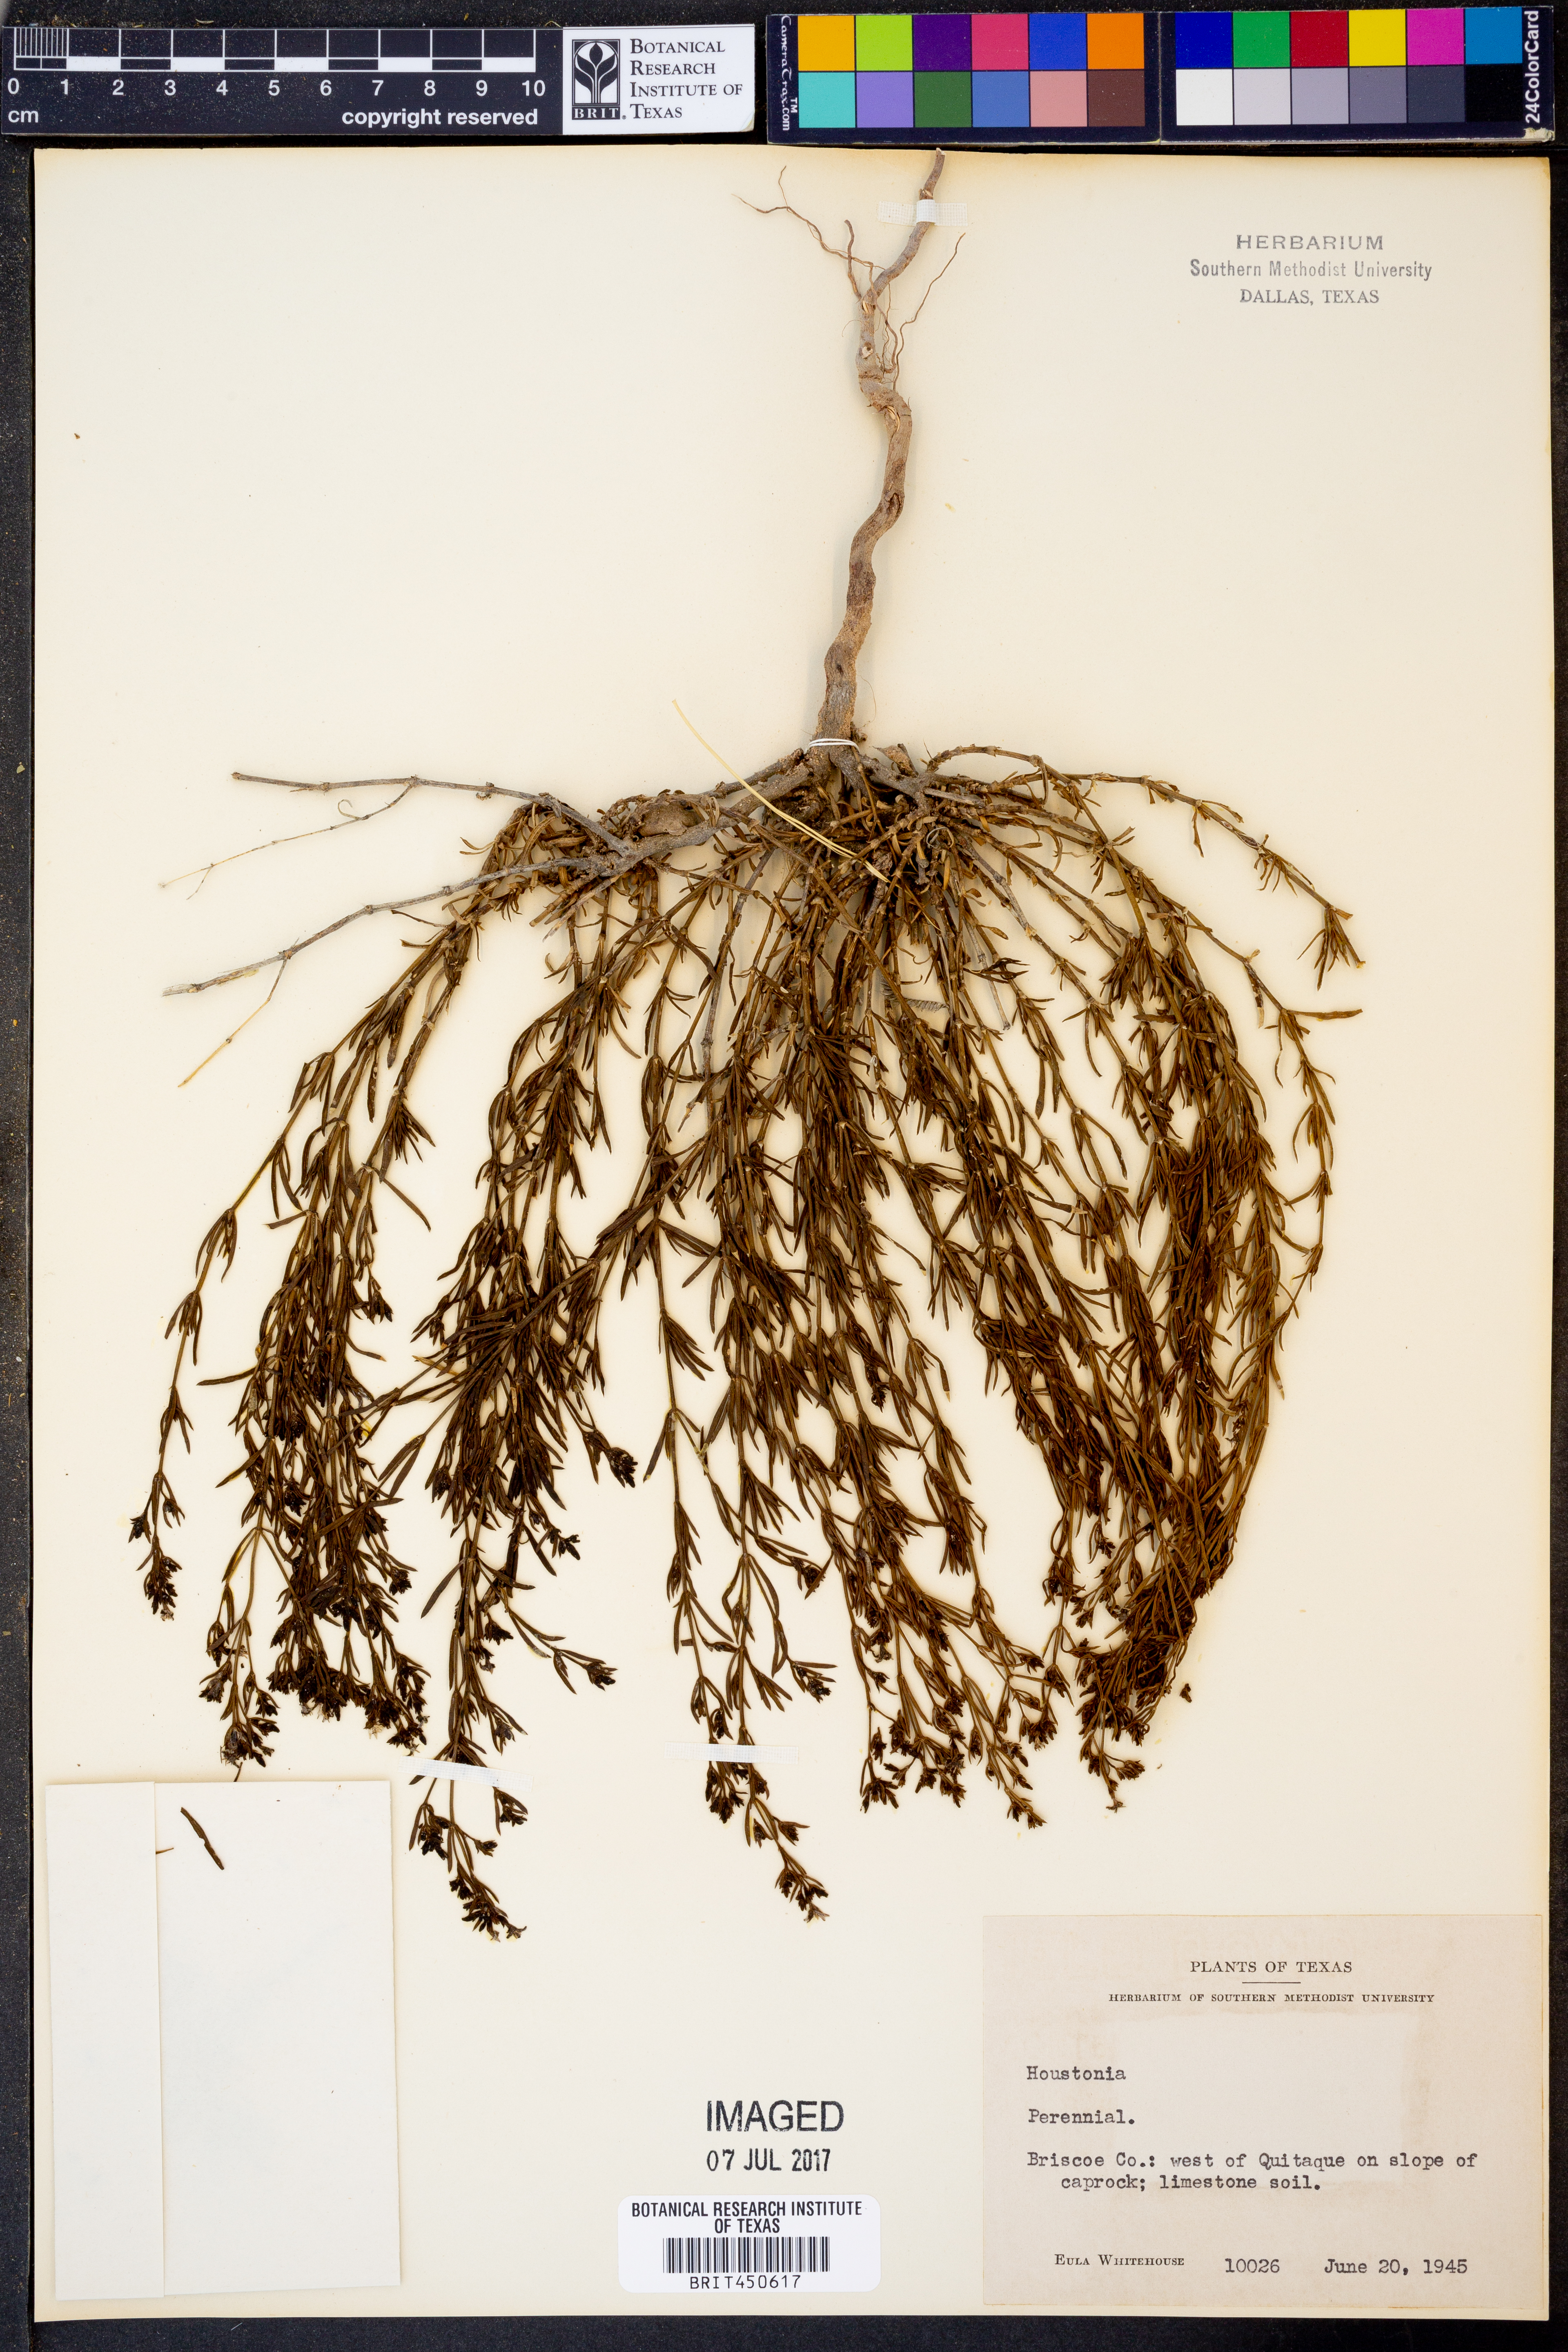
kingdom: Plantae
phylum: Tracheophyta
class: Magnoliopsida
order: Gentianales
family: Rubiaceae
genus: Houstonia
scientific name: Houstonia
